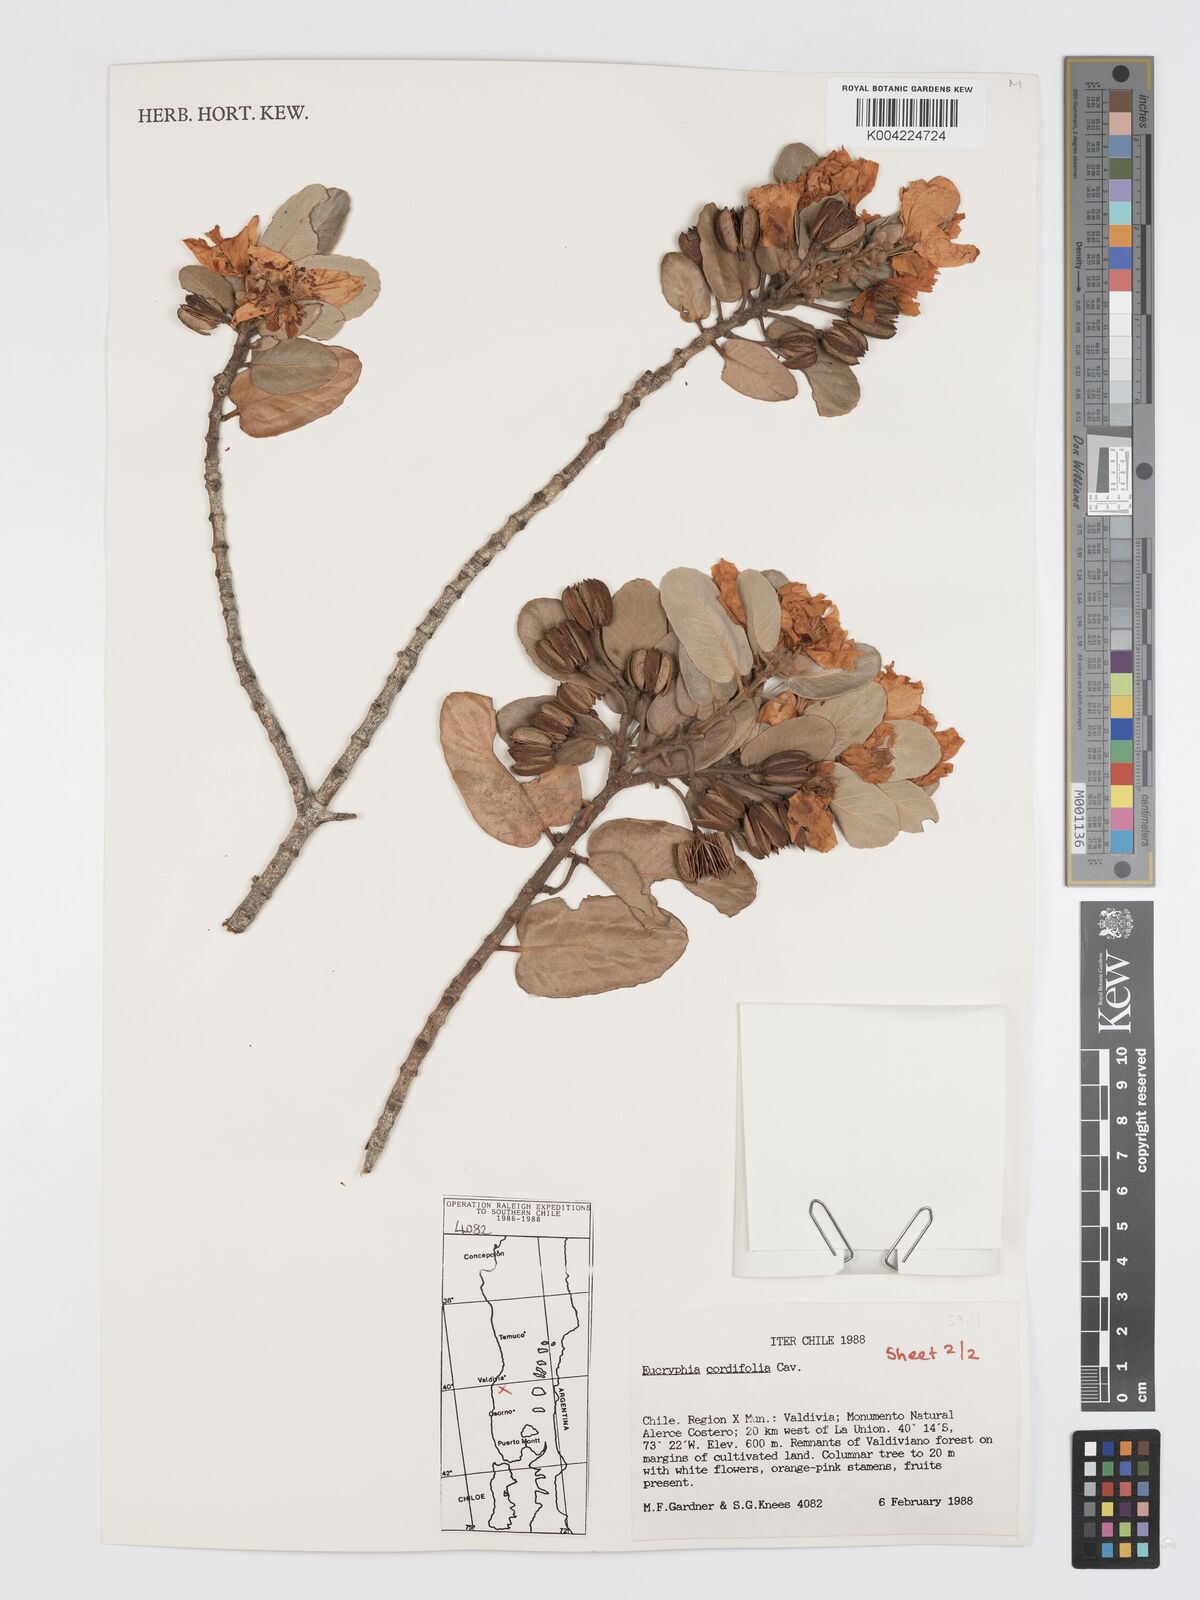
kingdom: Plantae
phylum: Tracheophyta
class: Magnoliopsida
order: Oxalidales
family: Cunoniaceae
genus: Eucryphia
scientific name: Eucryphia cordifolia
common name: Ulmo
